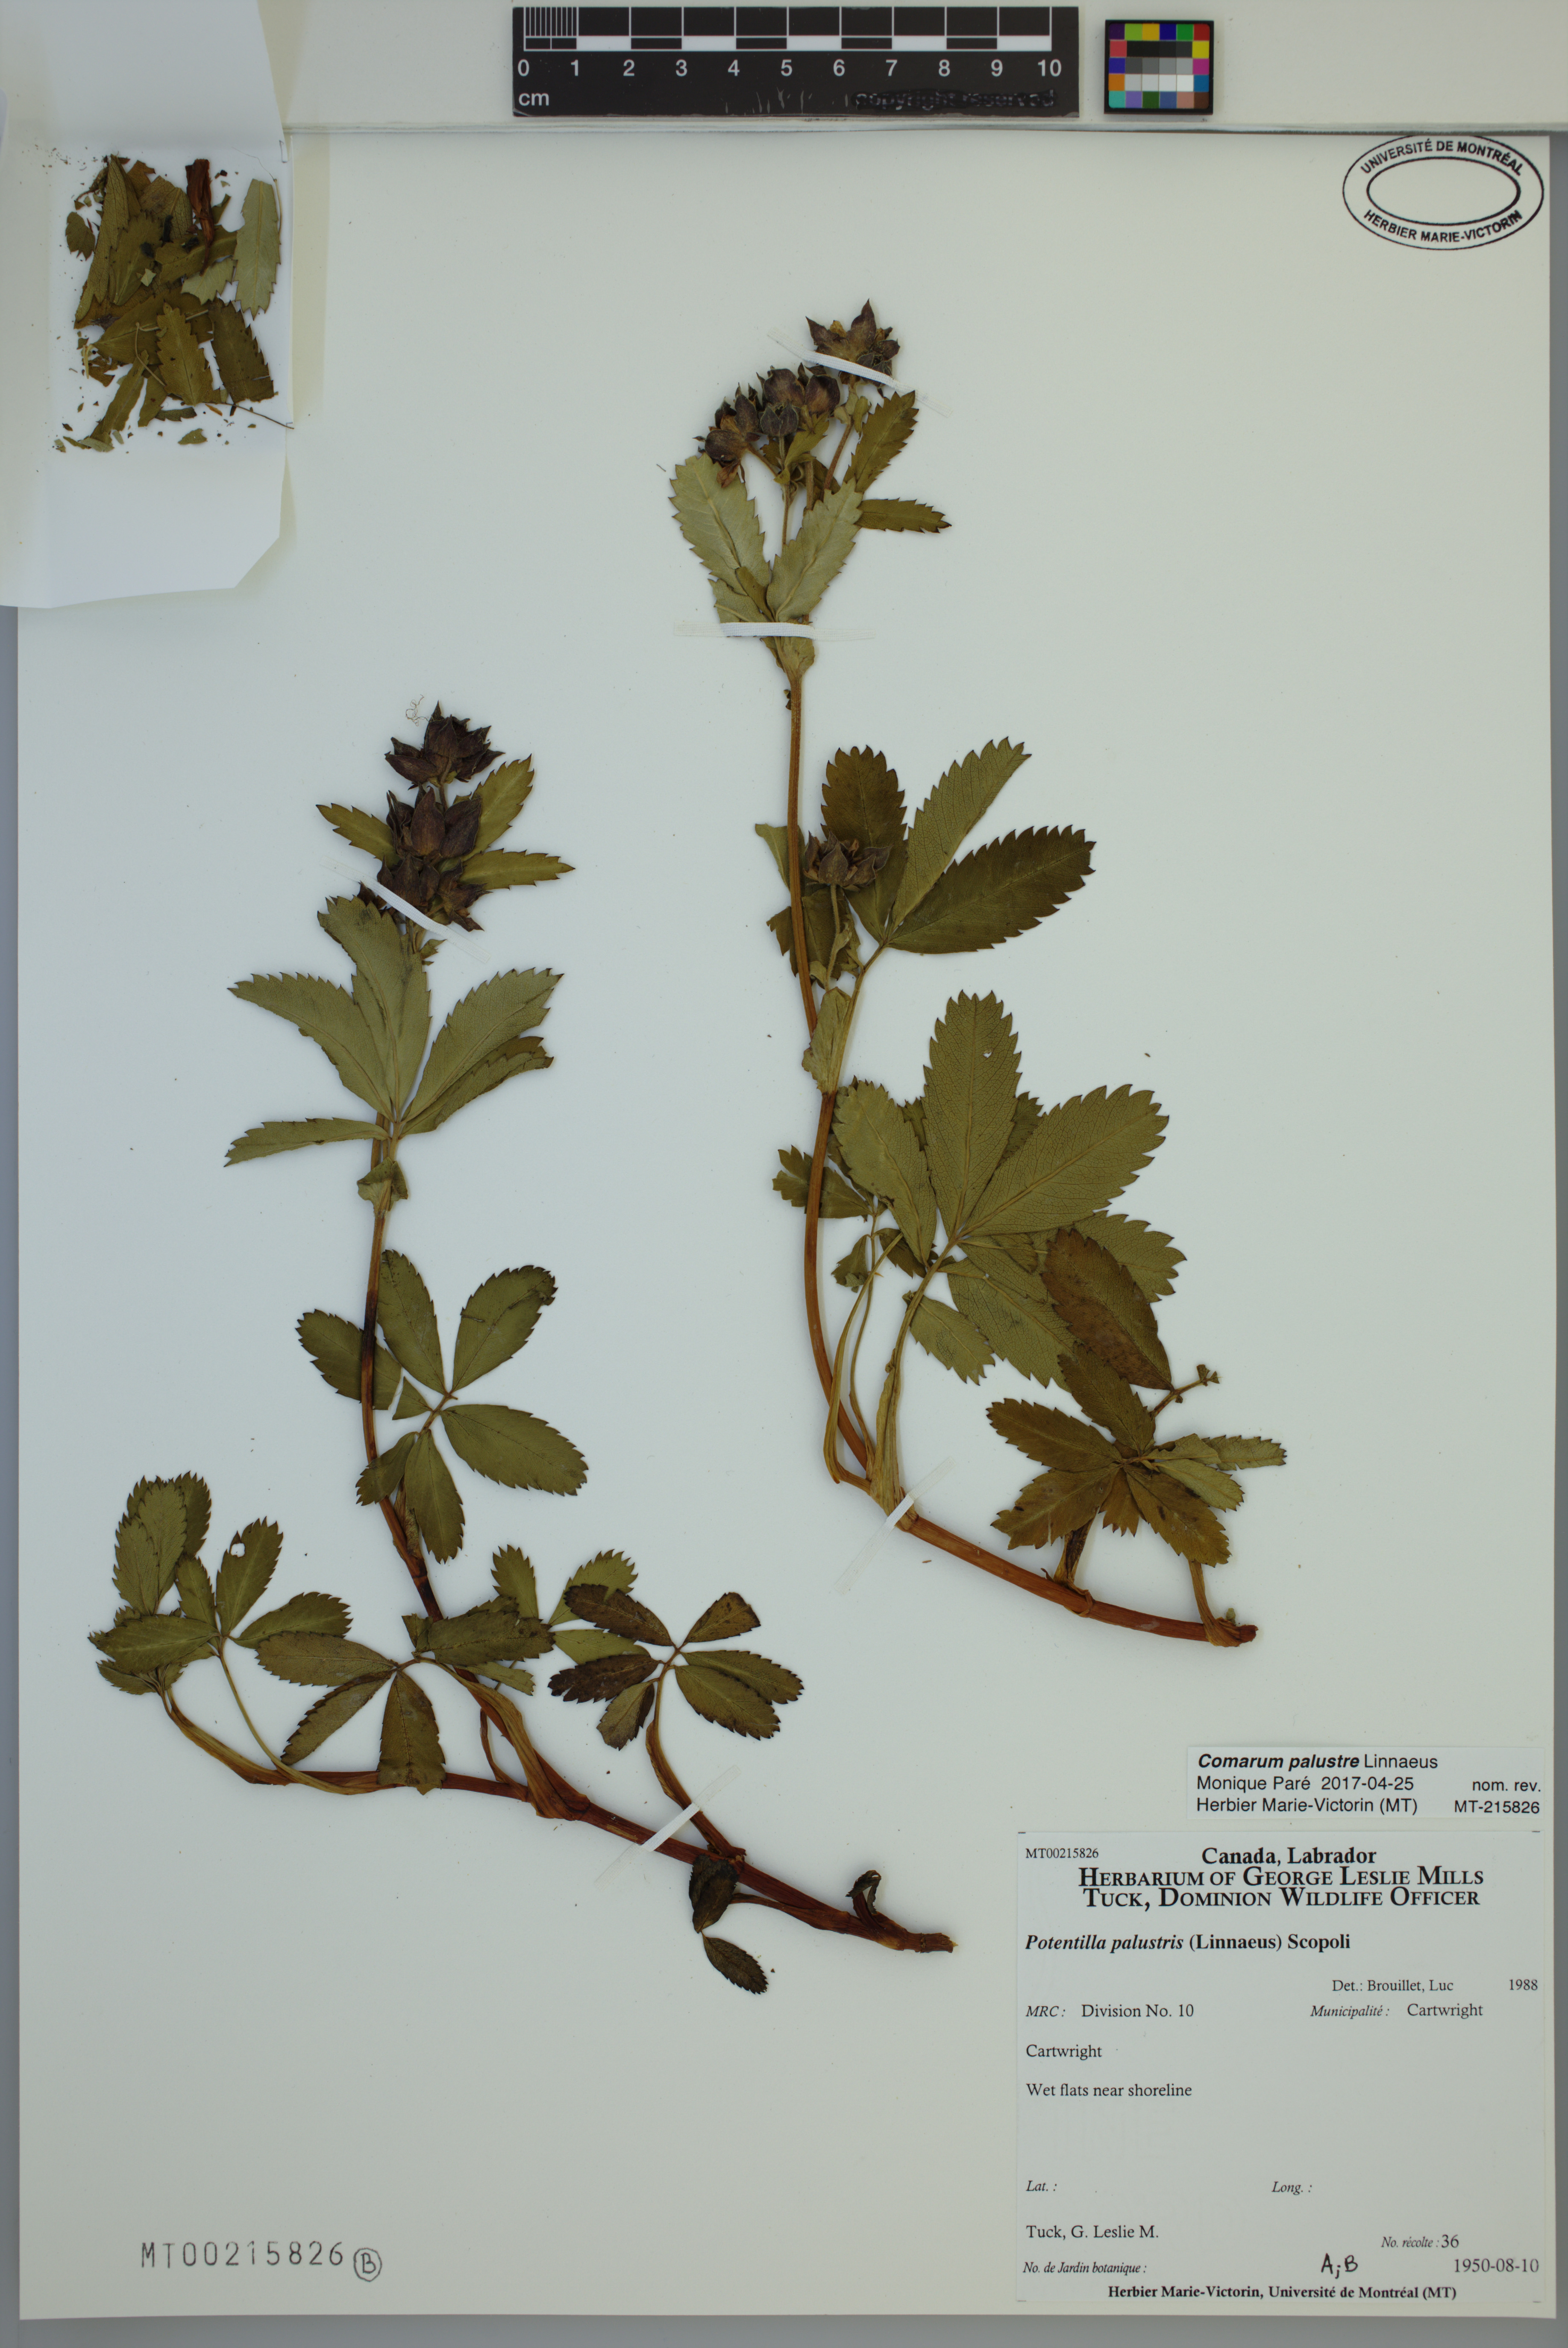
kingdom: Plantae
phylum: Tracheophyta
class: Magnoliopsida
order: Rosales
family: Rosaceae
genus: Comarum
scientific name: Comarum palustre
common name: Marsh cinquefoil
